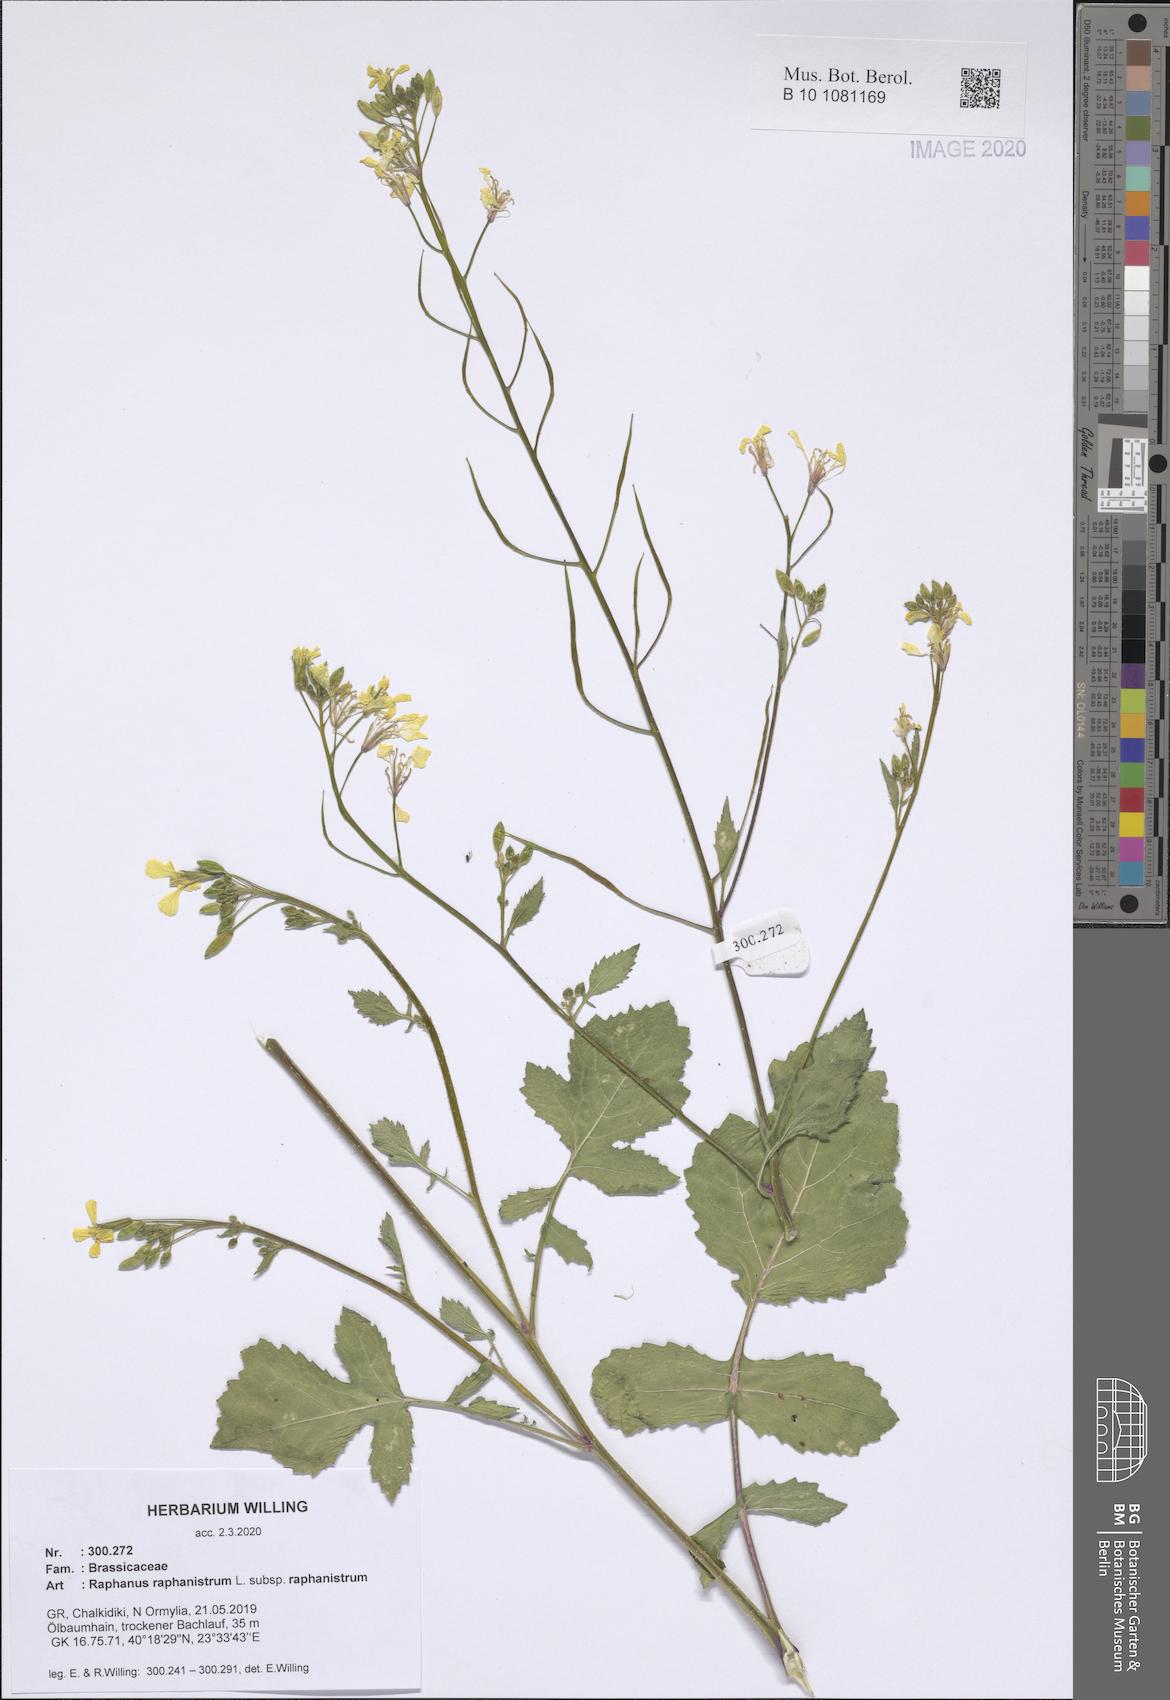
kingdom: Plantae
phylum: Tracheophyta
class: Magnoliopsida
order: Brassicales
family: Brassicaceae
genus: Raphanus
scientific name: Raphanus raphanistrum
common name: Wild radish
